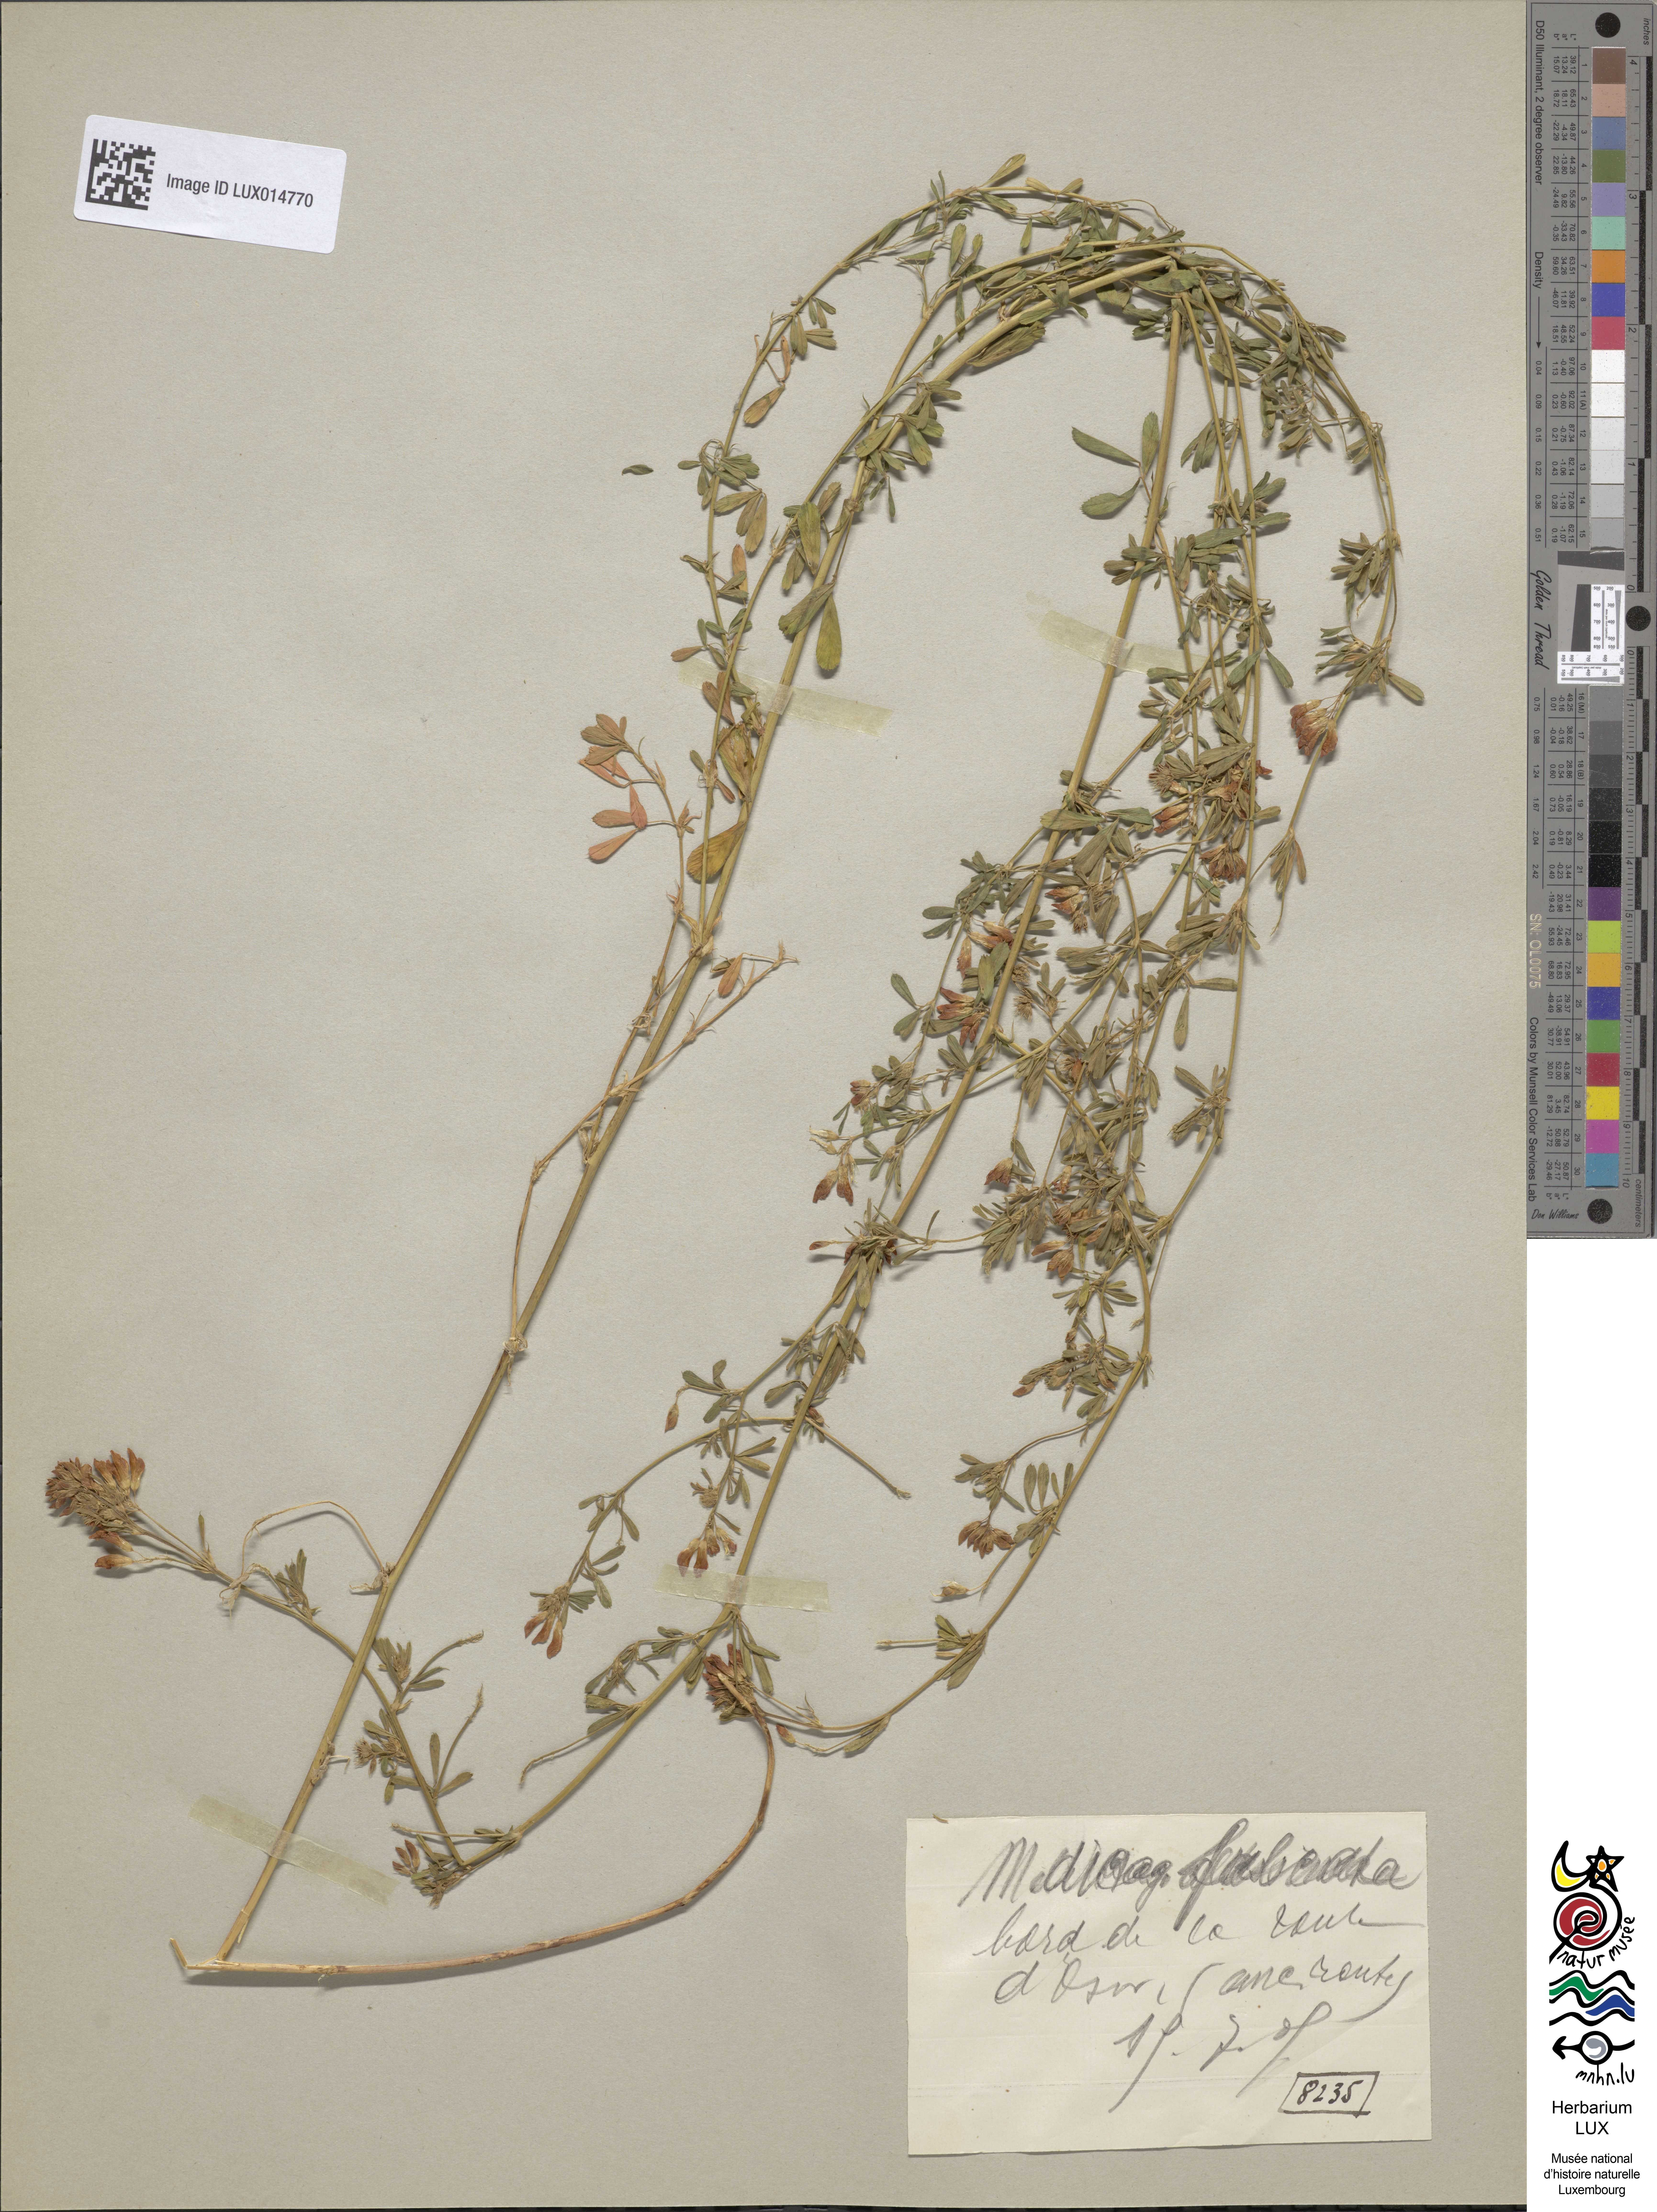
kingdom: Plantae
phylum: Tracheophyta
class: Magnoliopsida
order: Fabales
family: Fabaceae
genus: Medicago
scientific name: Medicago falcata
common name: Sickle medick
